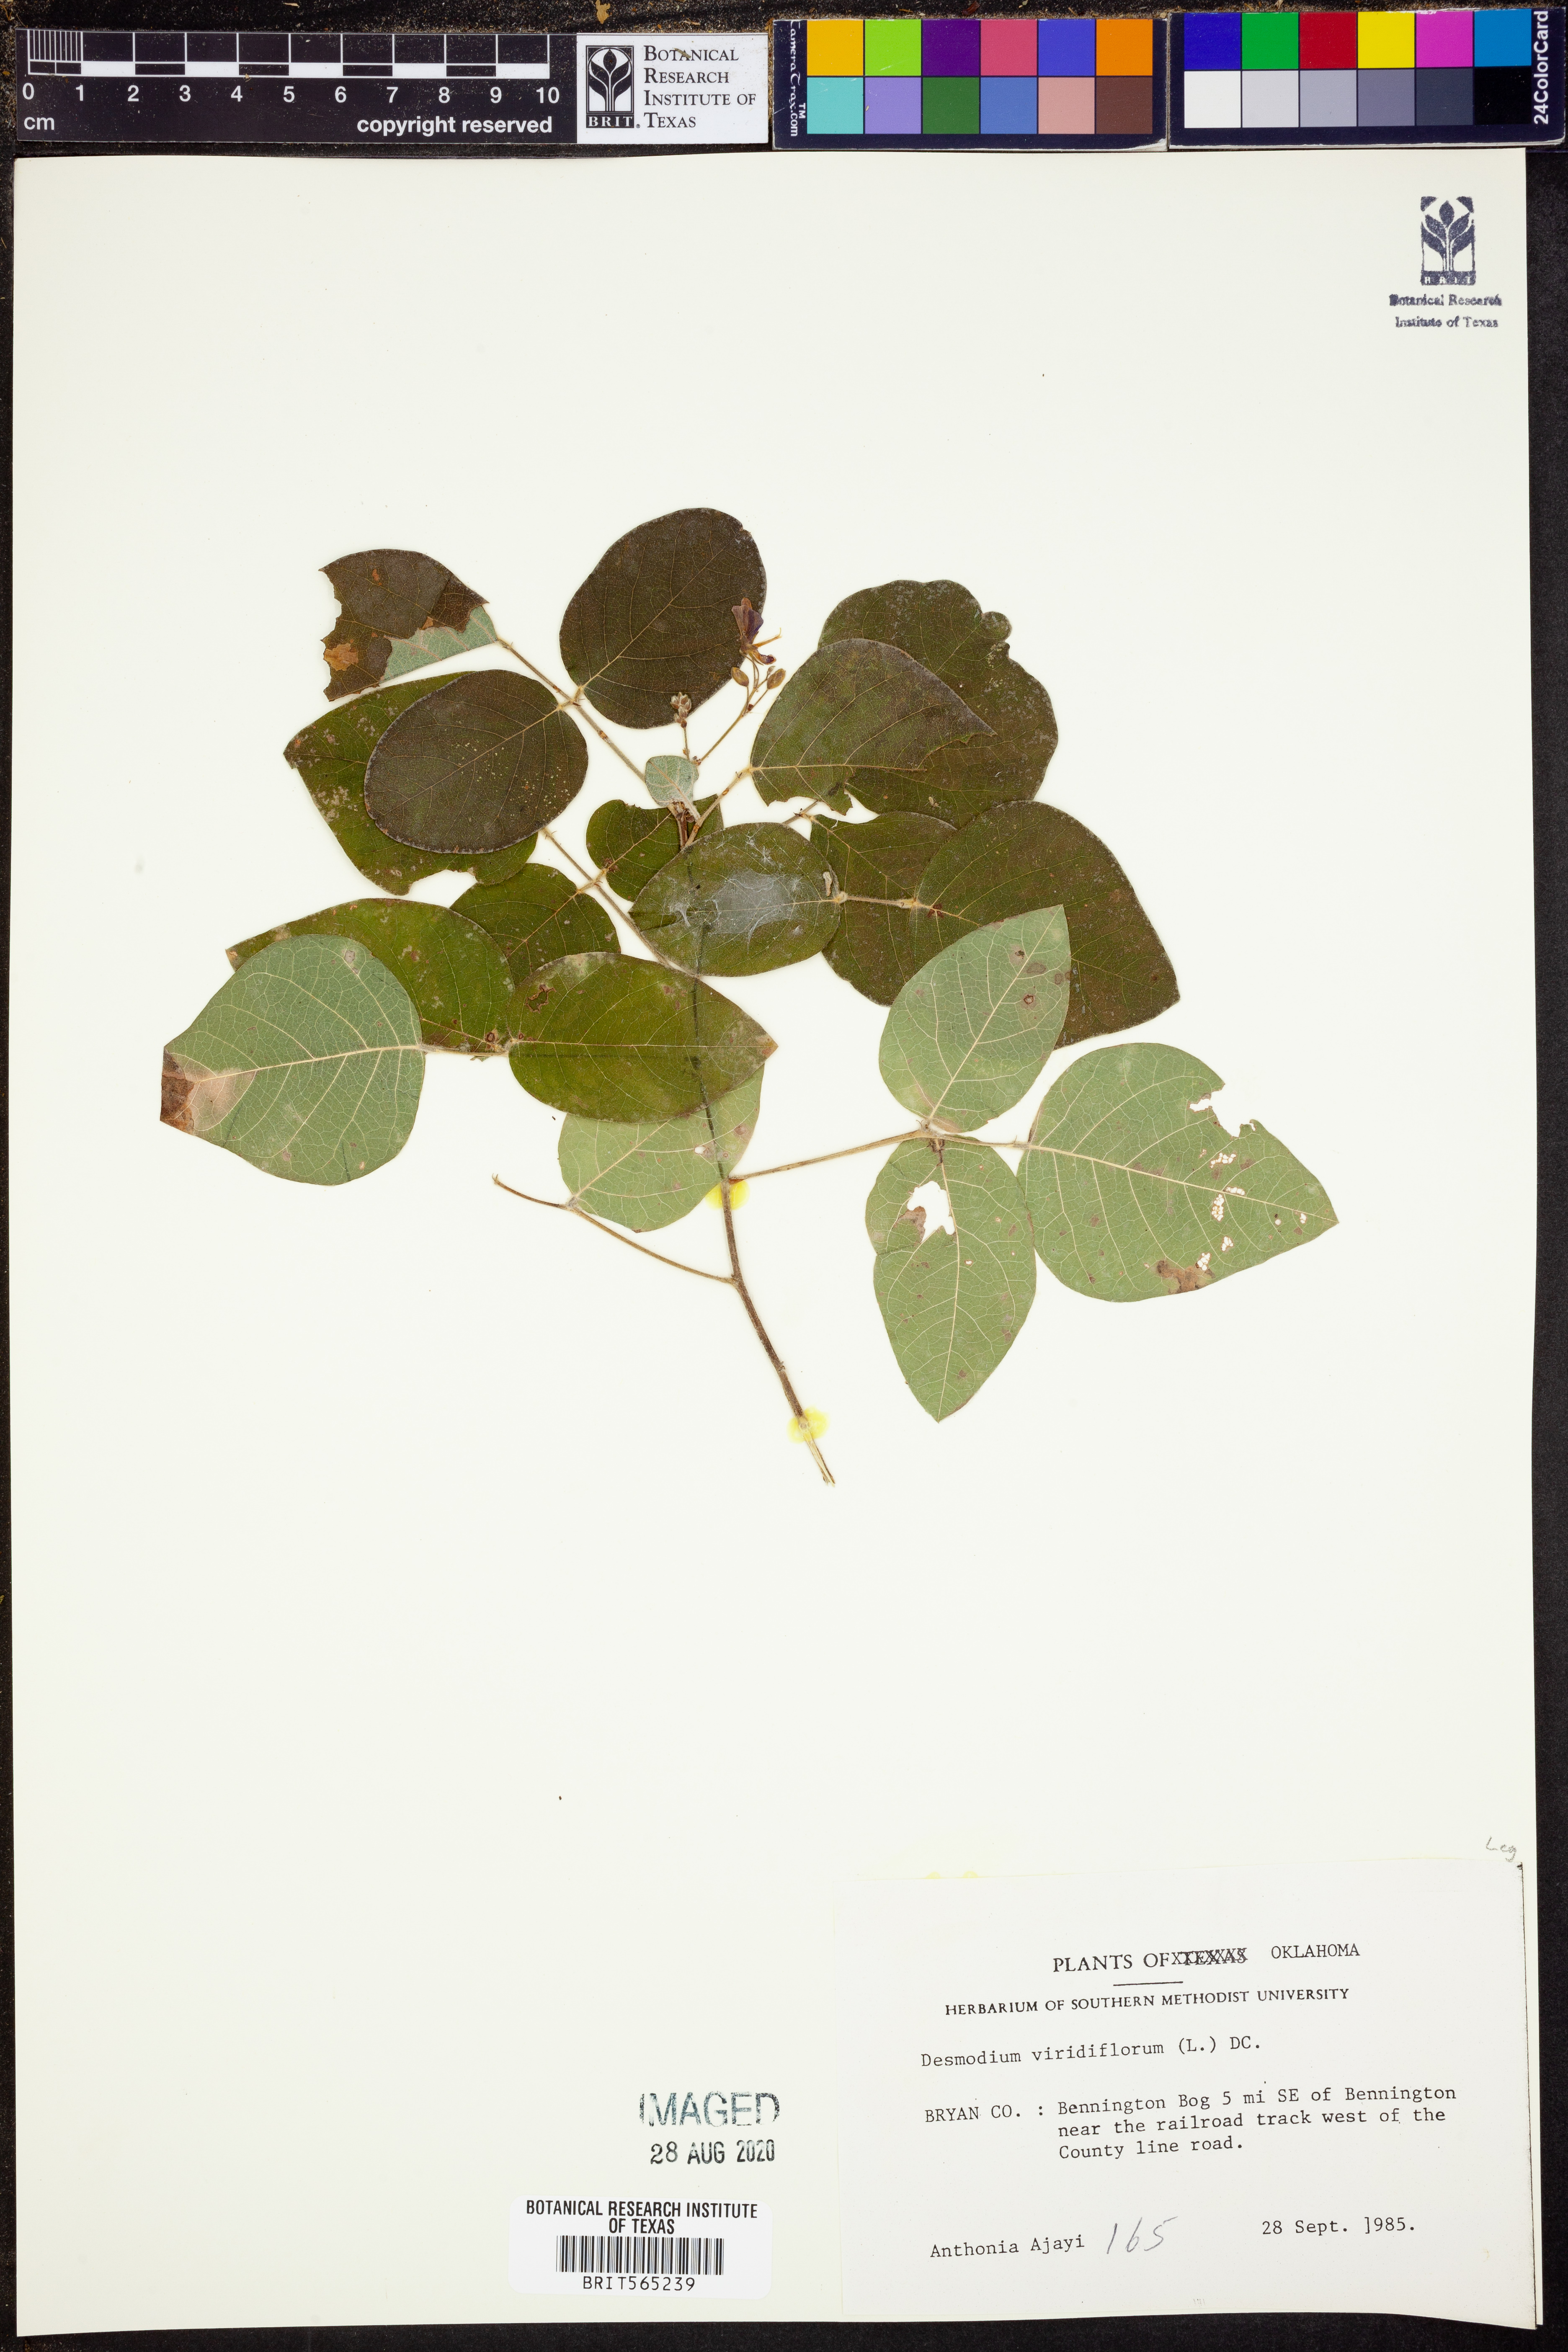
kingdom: Plantae
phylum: Tracheophyta
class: Magnoliopsida
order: Fabales
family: Fabaceae
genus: Desmodium
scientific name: Desmodium viridiflorum
